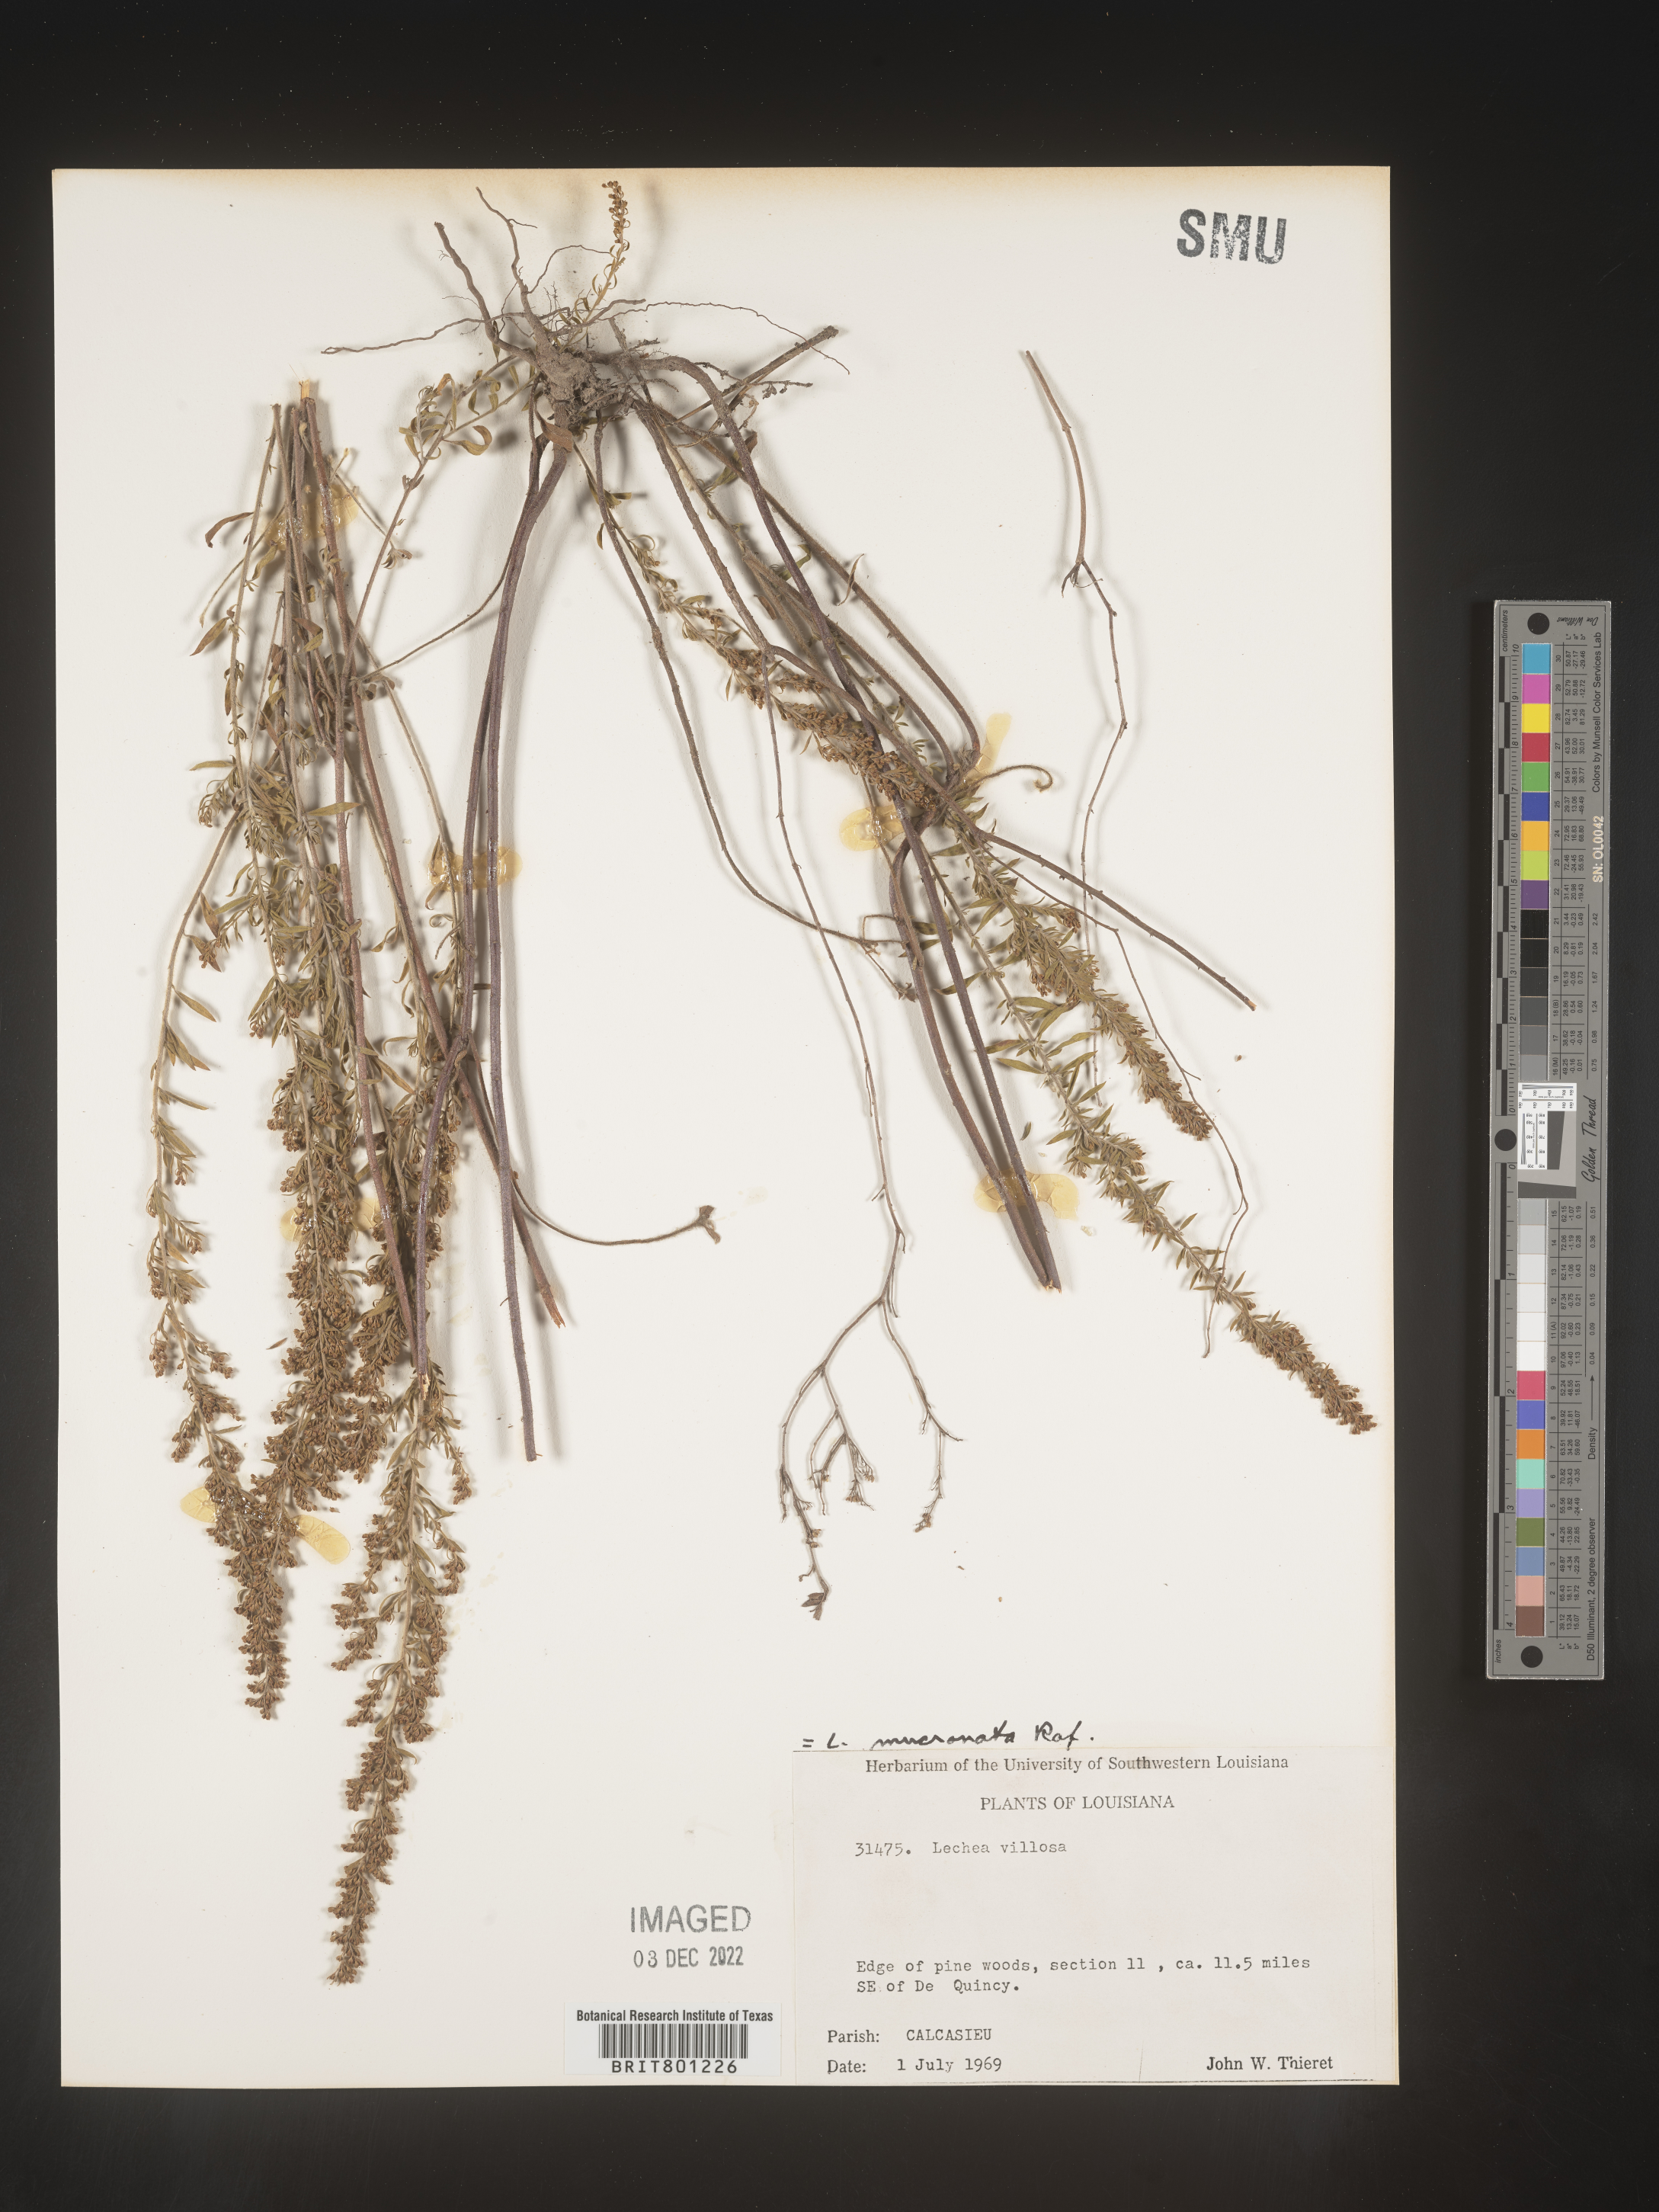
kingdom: Plantae
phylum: Tracheophyta
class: Magnoliopsida
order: Malvales
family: Cistaceae
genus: Lechea
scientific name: Lechea mucronata
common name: Hairy pinweed
